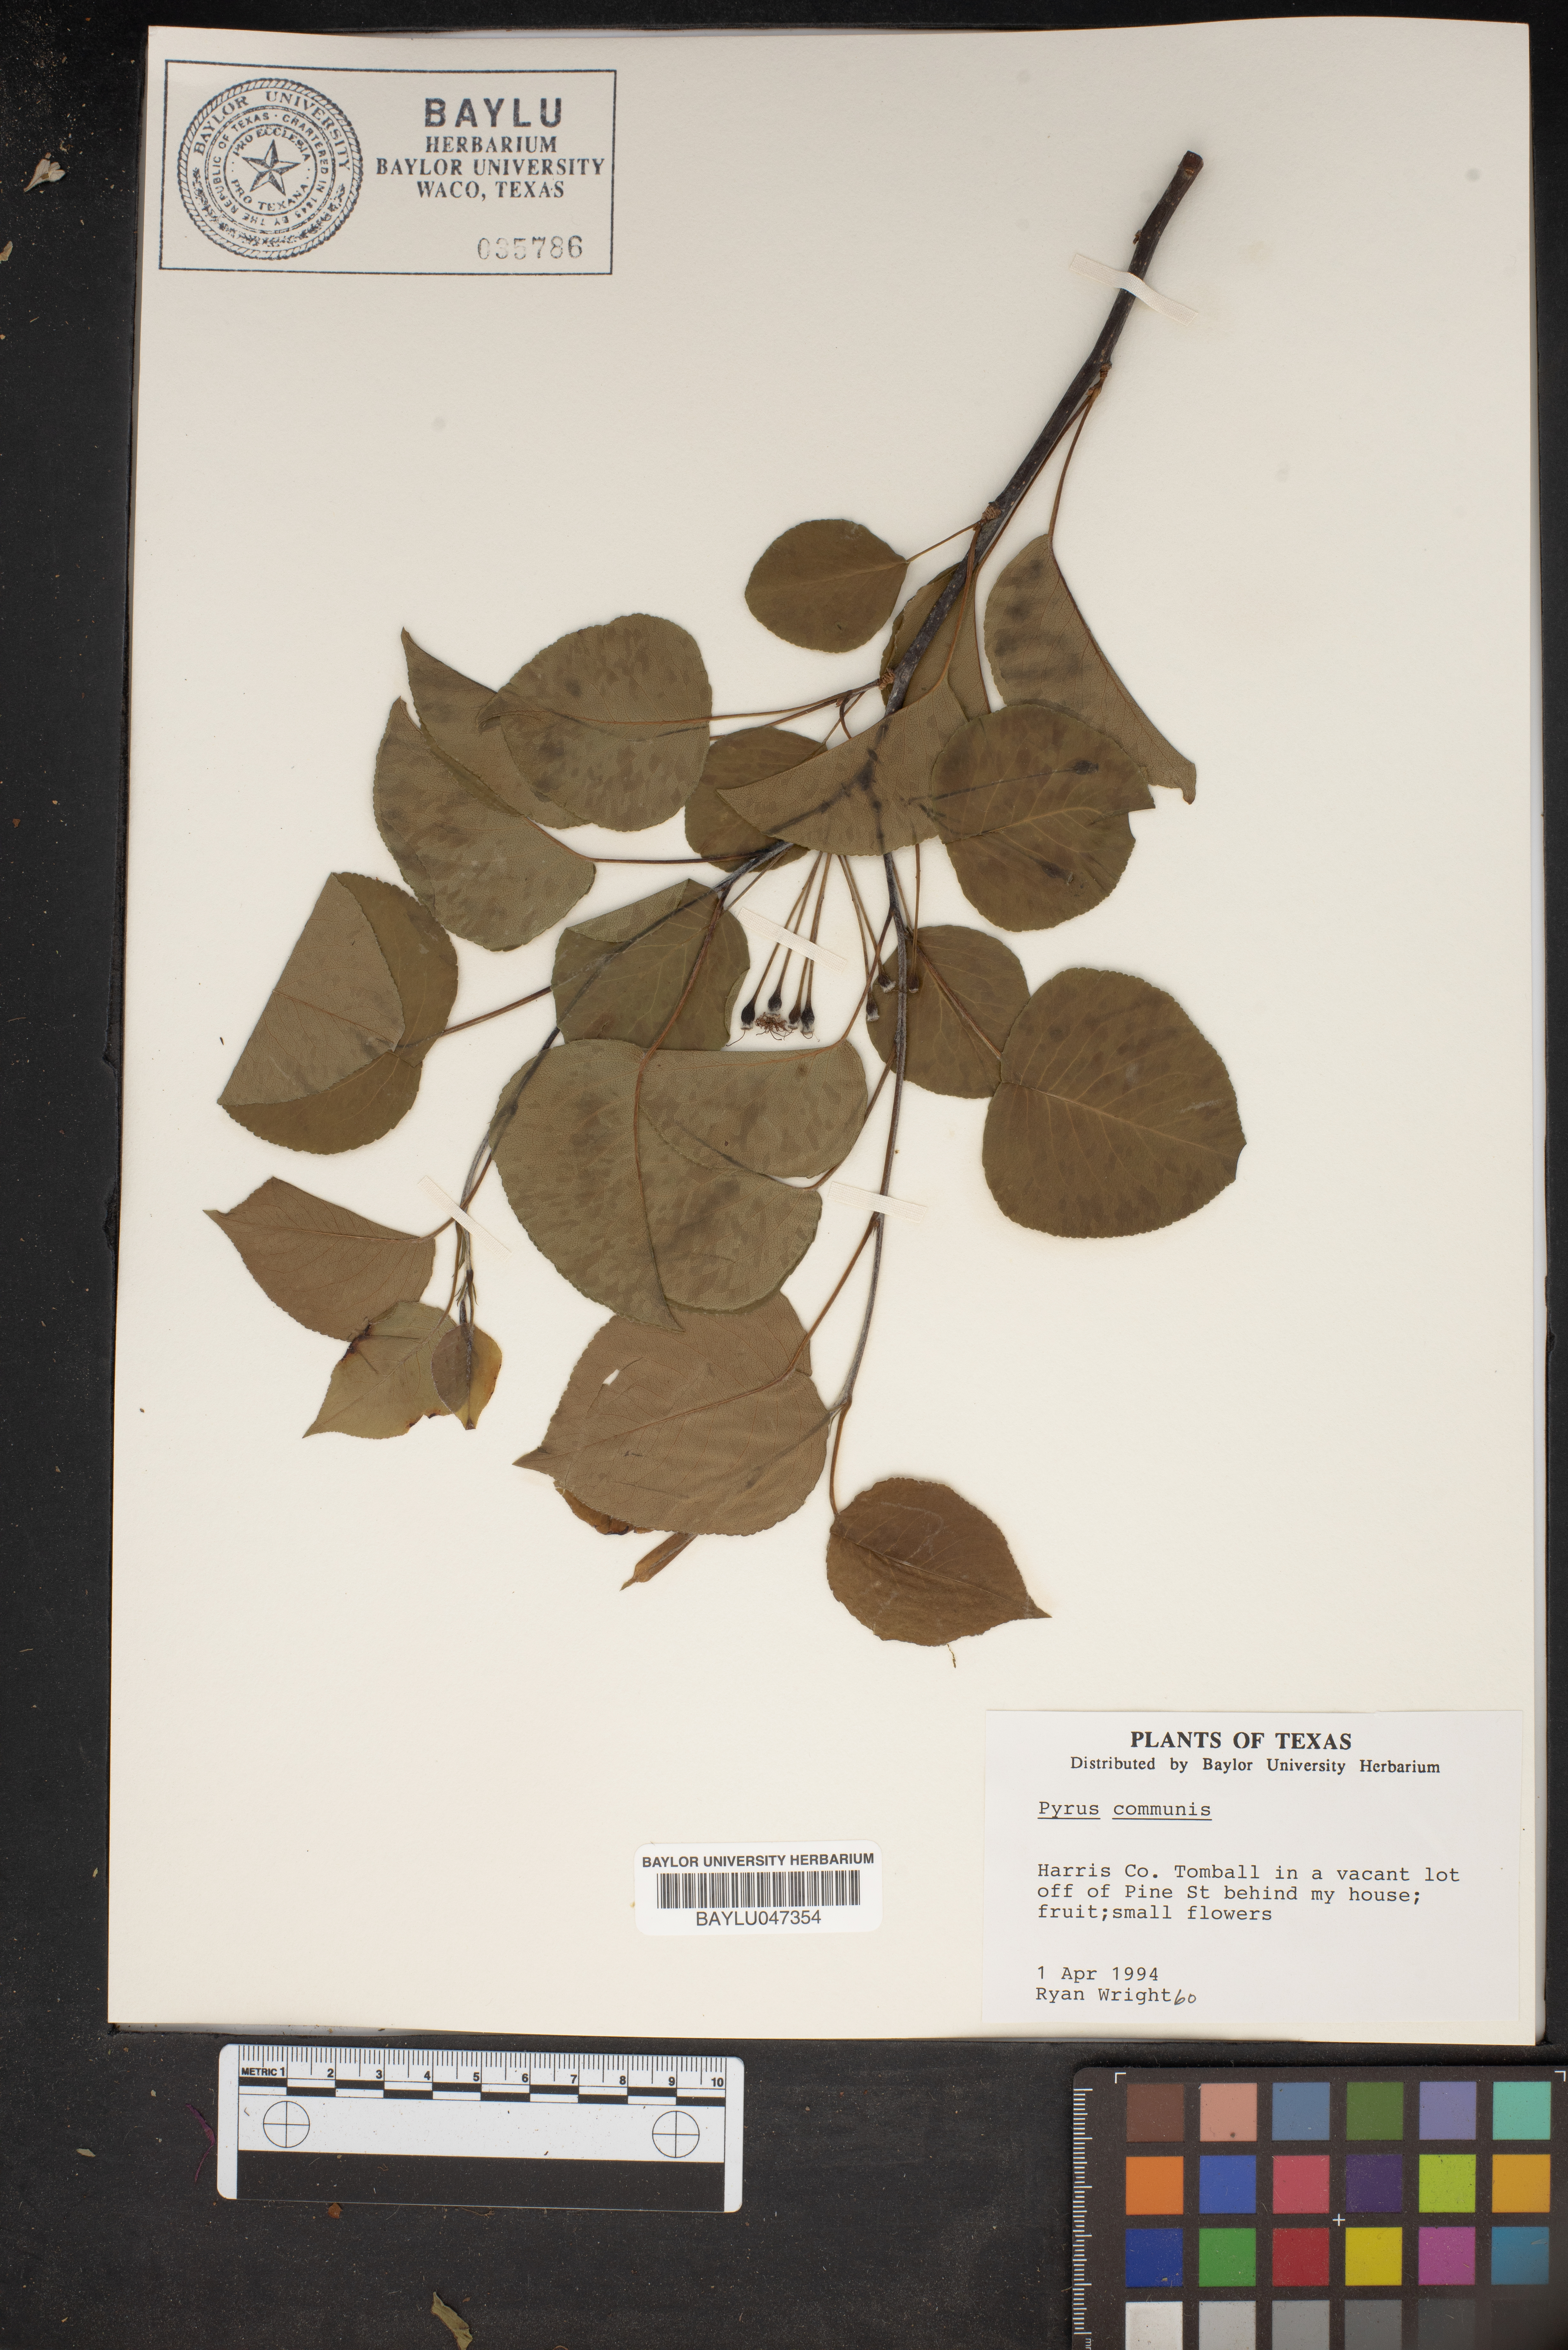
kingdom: Plantae
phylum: Tracheophyta
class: Magnoliopsida
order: Rosales
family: Rosaceae
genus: Pyrus
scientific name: Pyrus communis
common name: Pear
